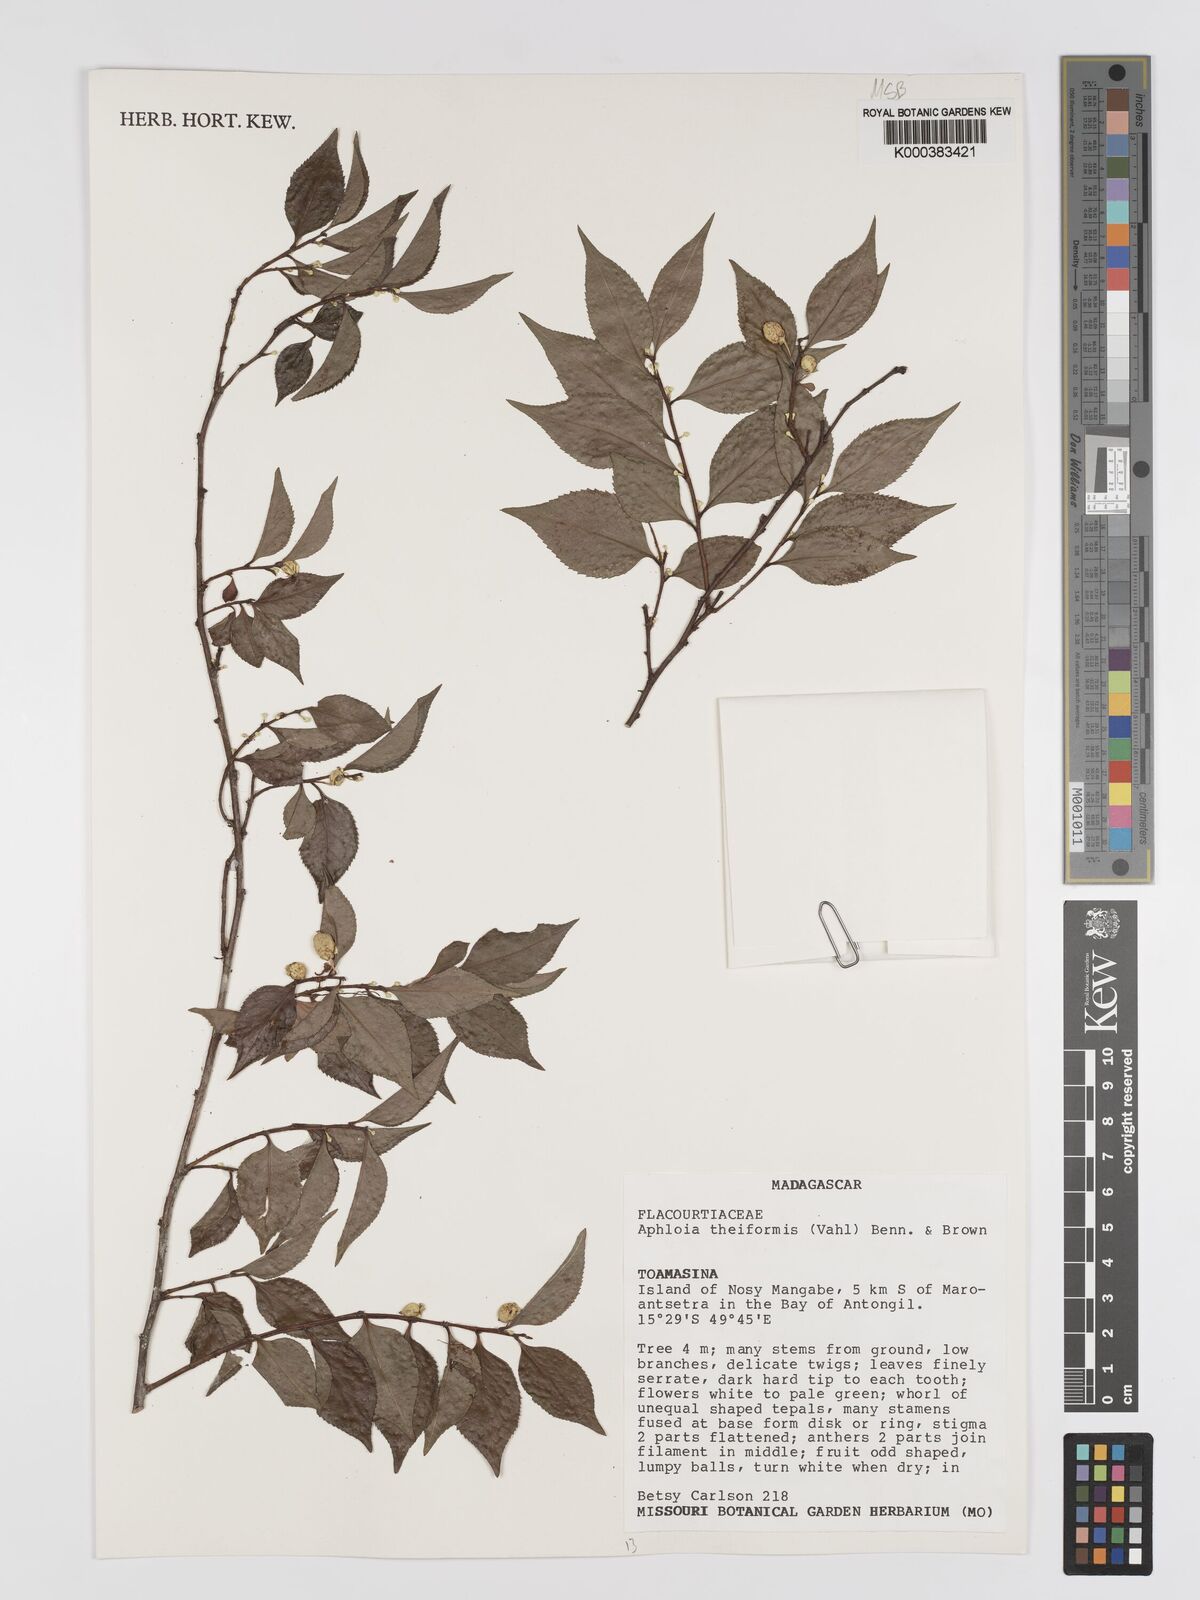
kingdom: Plantae
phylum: Tracheophyta
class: Magnoliopsida
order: Crossosomatales
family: Aphloiaceae
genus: Aphloia
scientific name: Aphloia theiformis
